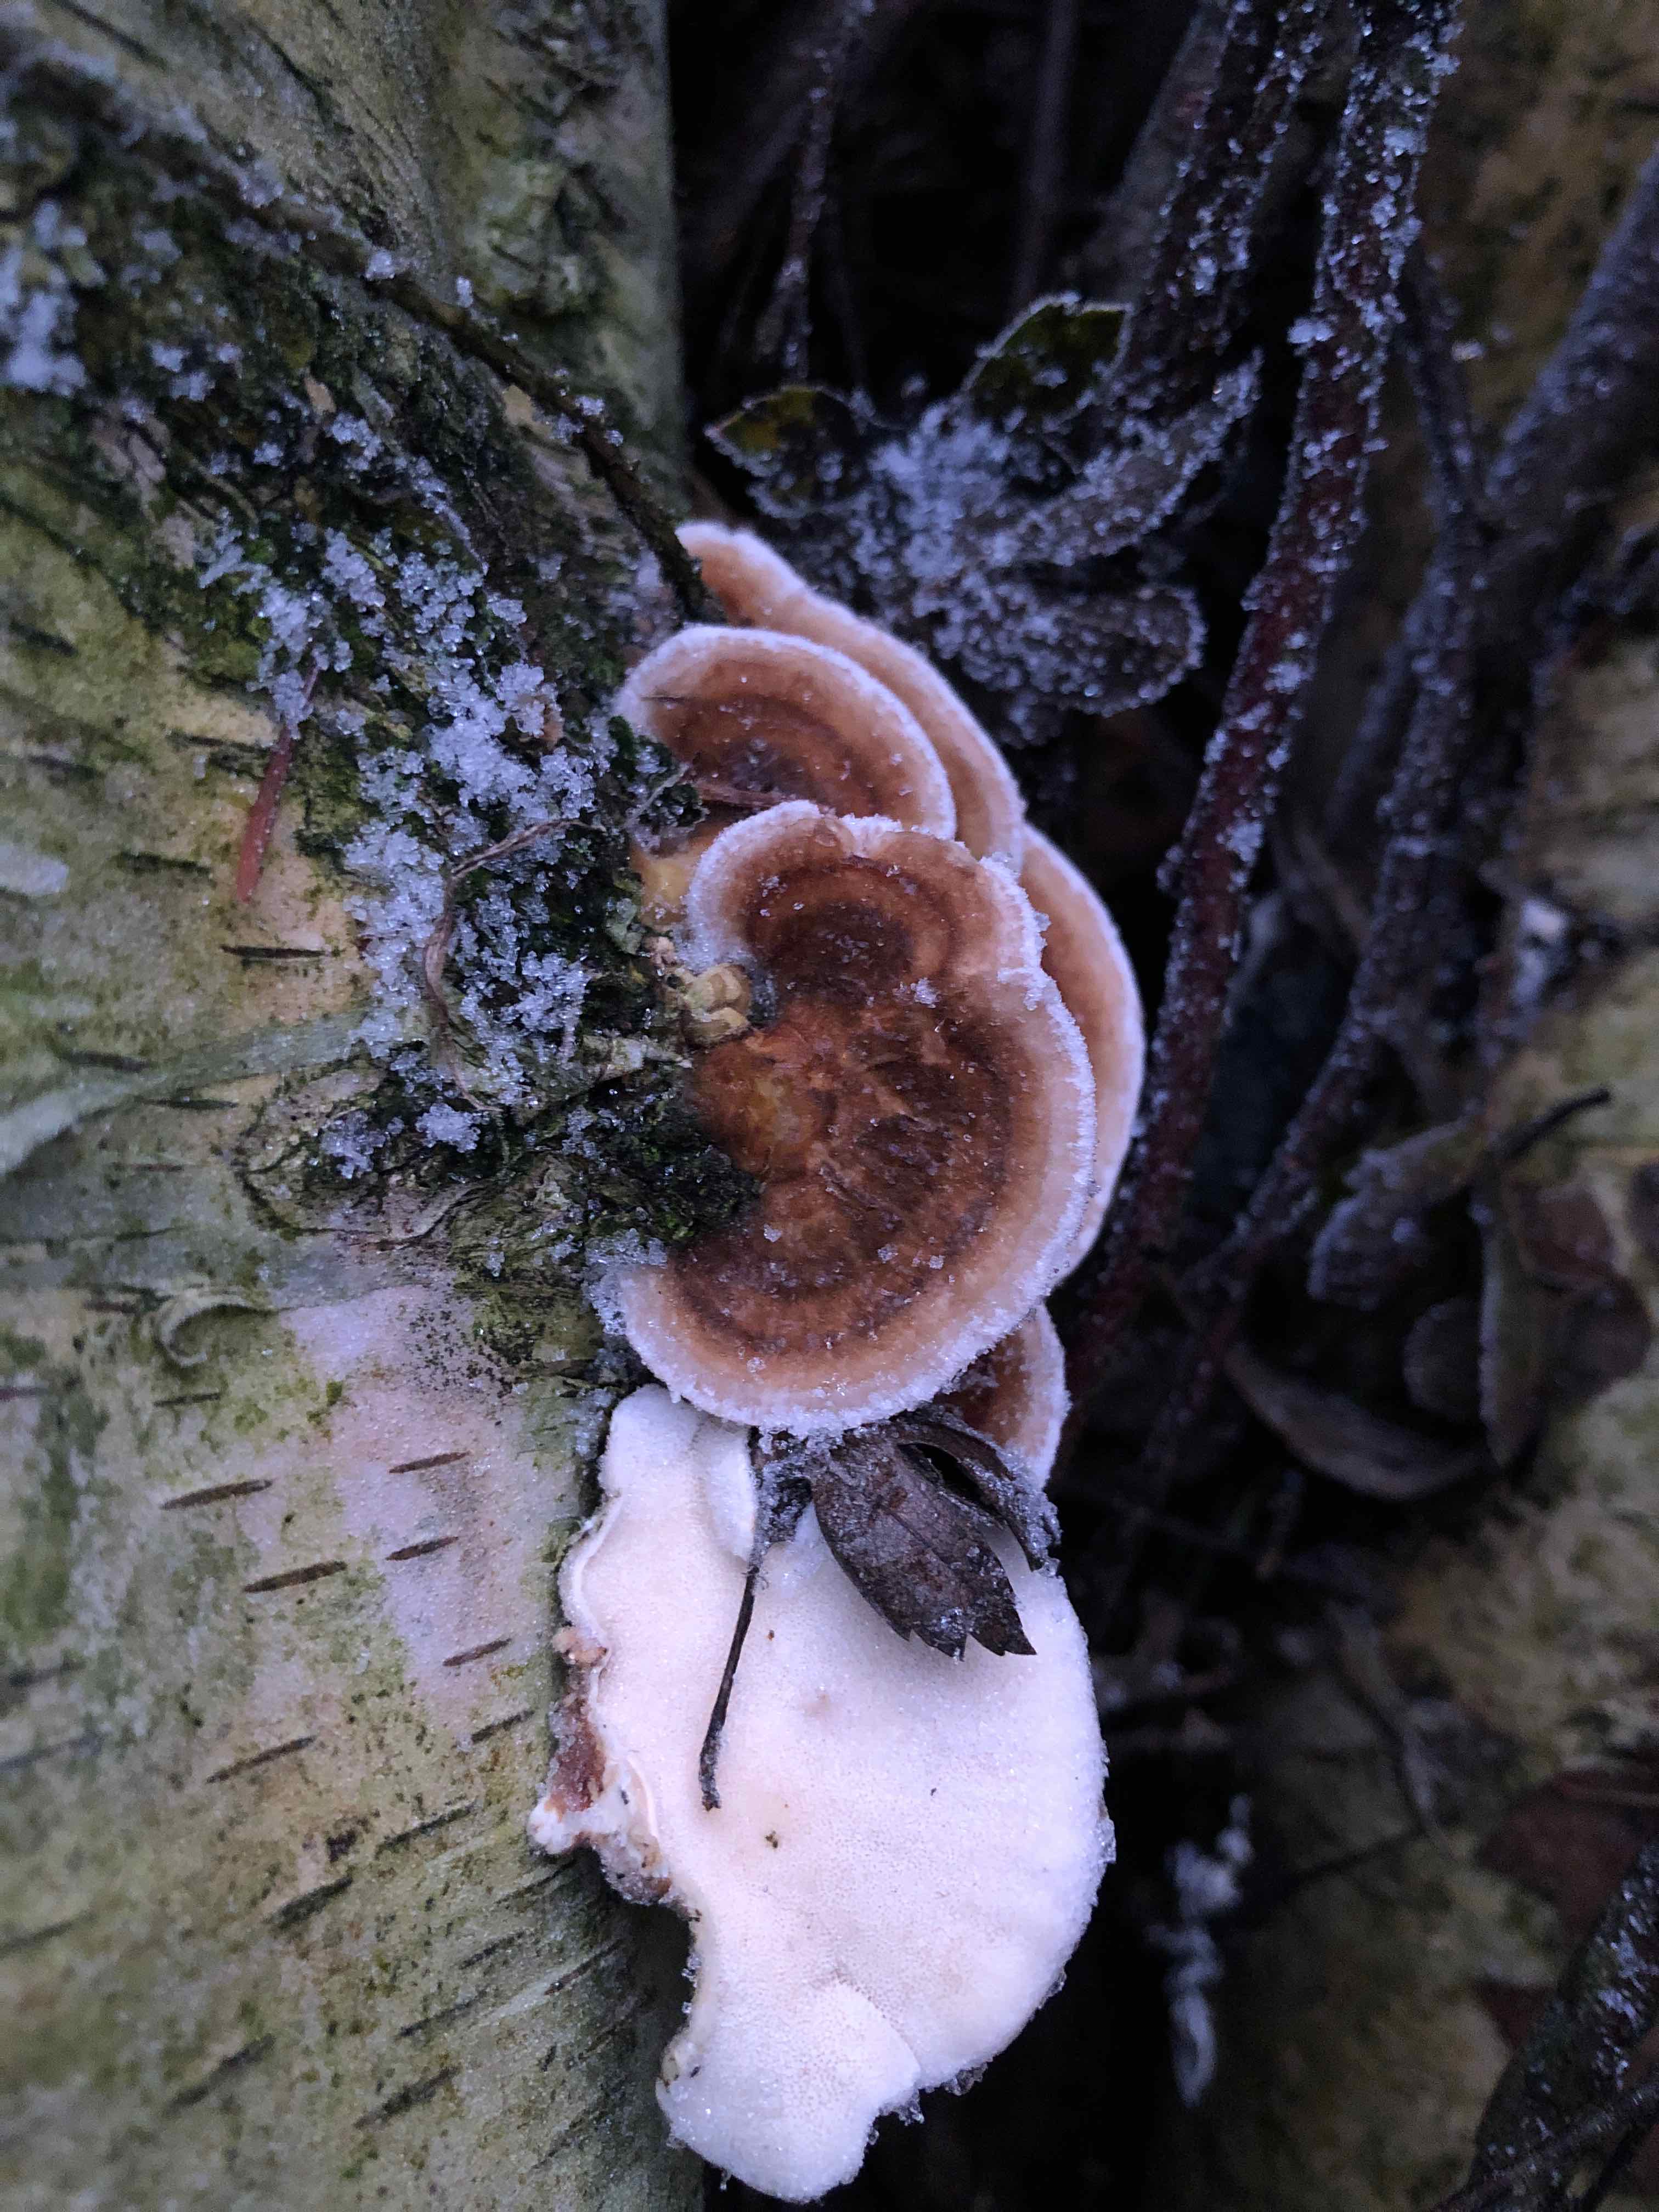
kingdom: Fungi
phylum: Basidiomycota
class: Agaricomycetes
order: Polyporales
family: Polyporaceae
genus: Trametes
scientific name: Trametes ochracea
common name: bæltet læderporesvamp
